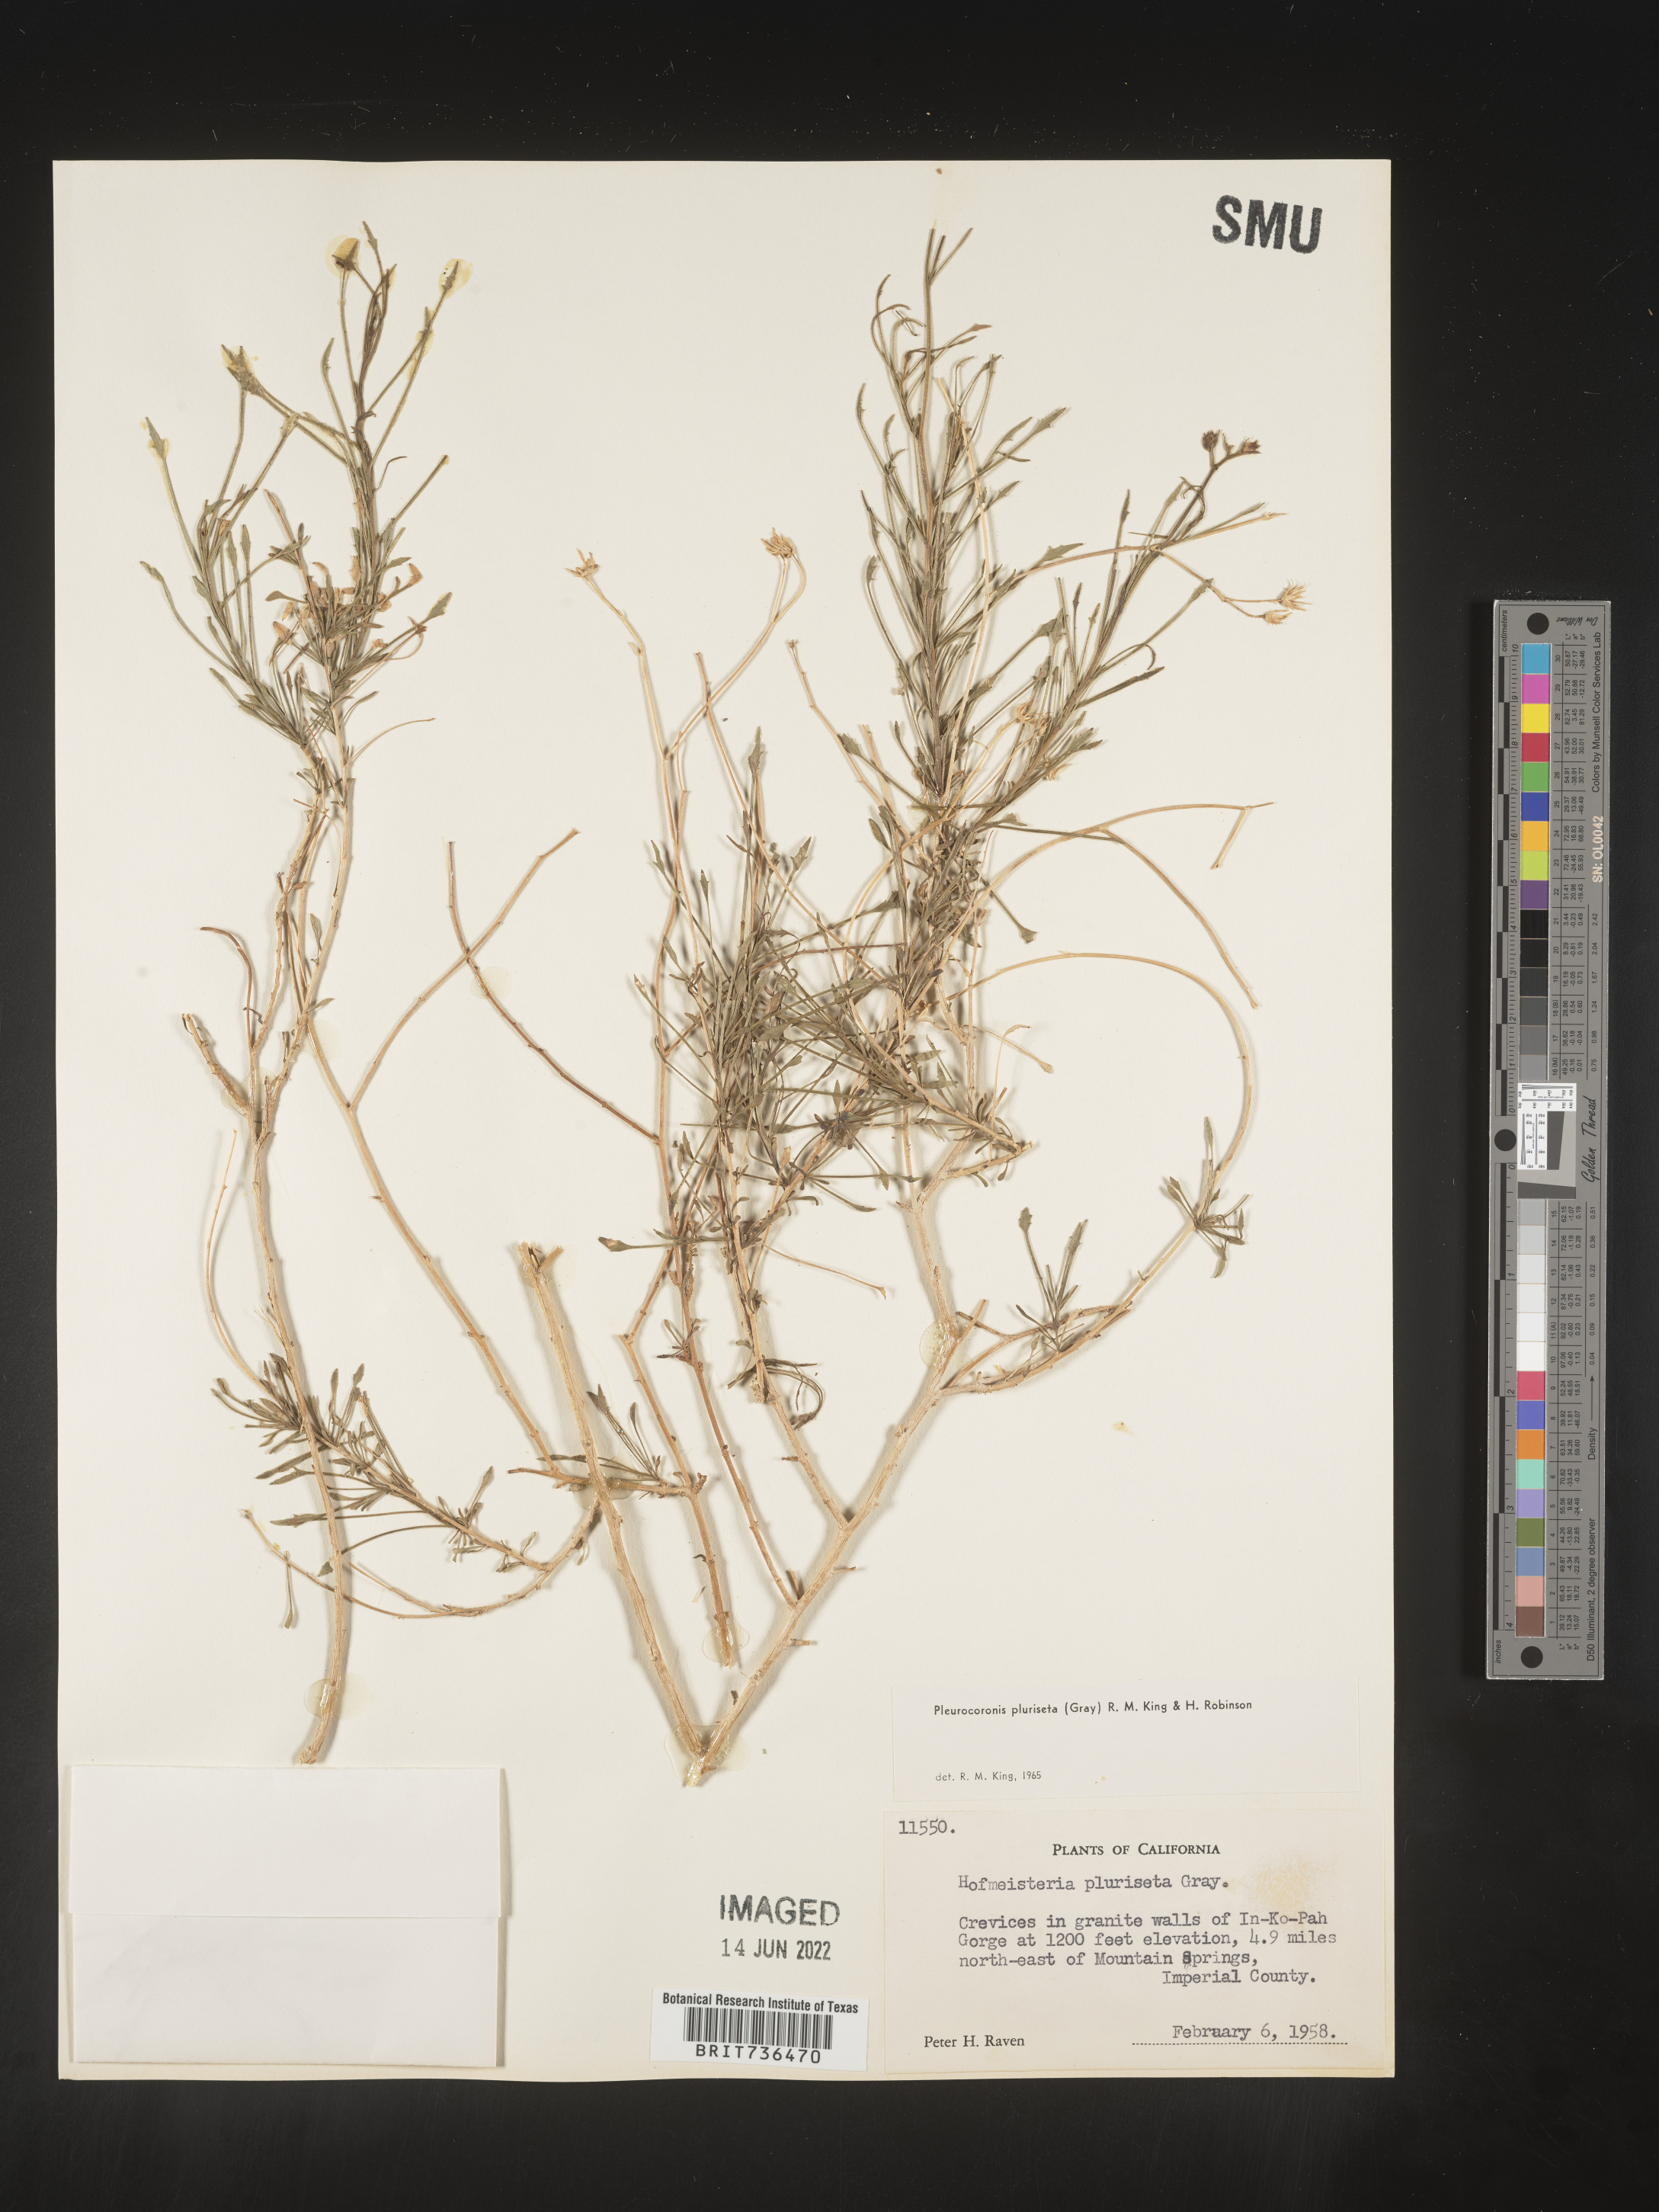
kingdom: Plantae
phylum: Tracheophyta
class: Magnoliopsida
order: Asterales
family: Asteraceae
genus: Pleurocoronis
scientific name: Pleurocoronis
